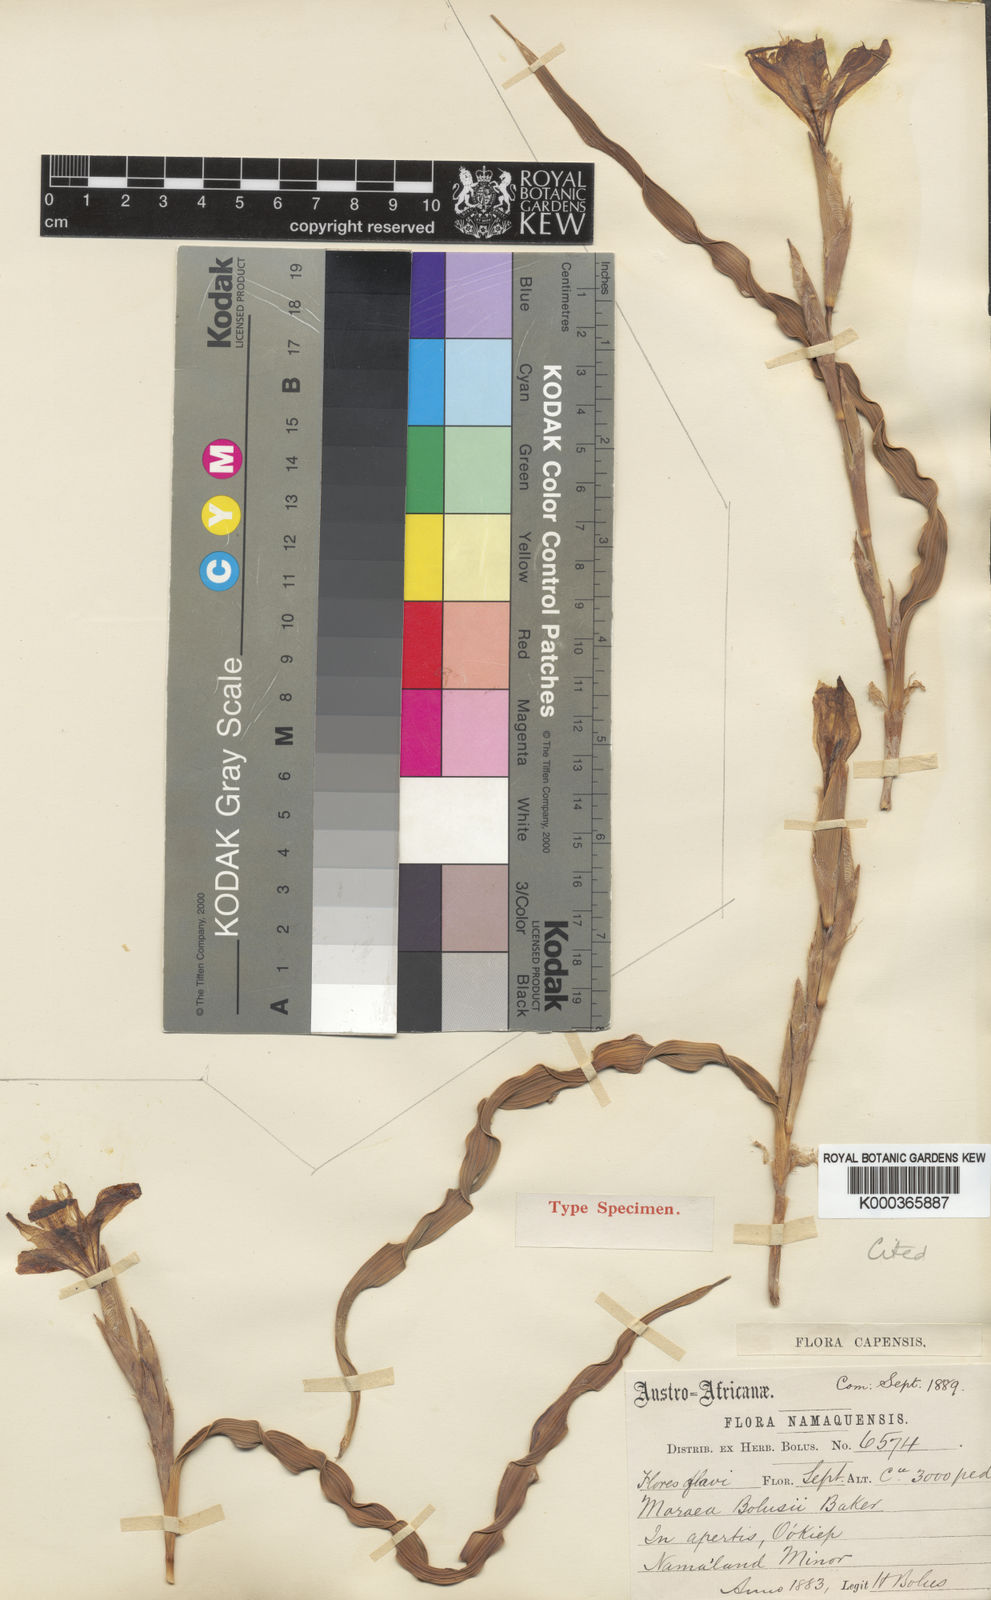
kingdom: Plantae
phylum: Tracheophyta
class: Liliopsida
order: Asparagales
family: Iridaceae
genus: Moraea
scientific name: Moraea bolusii
